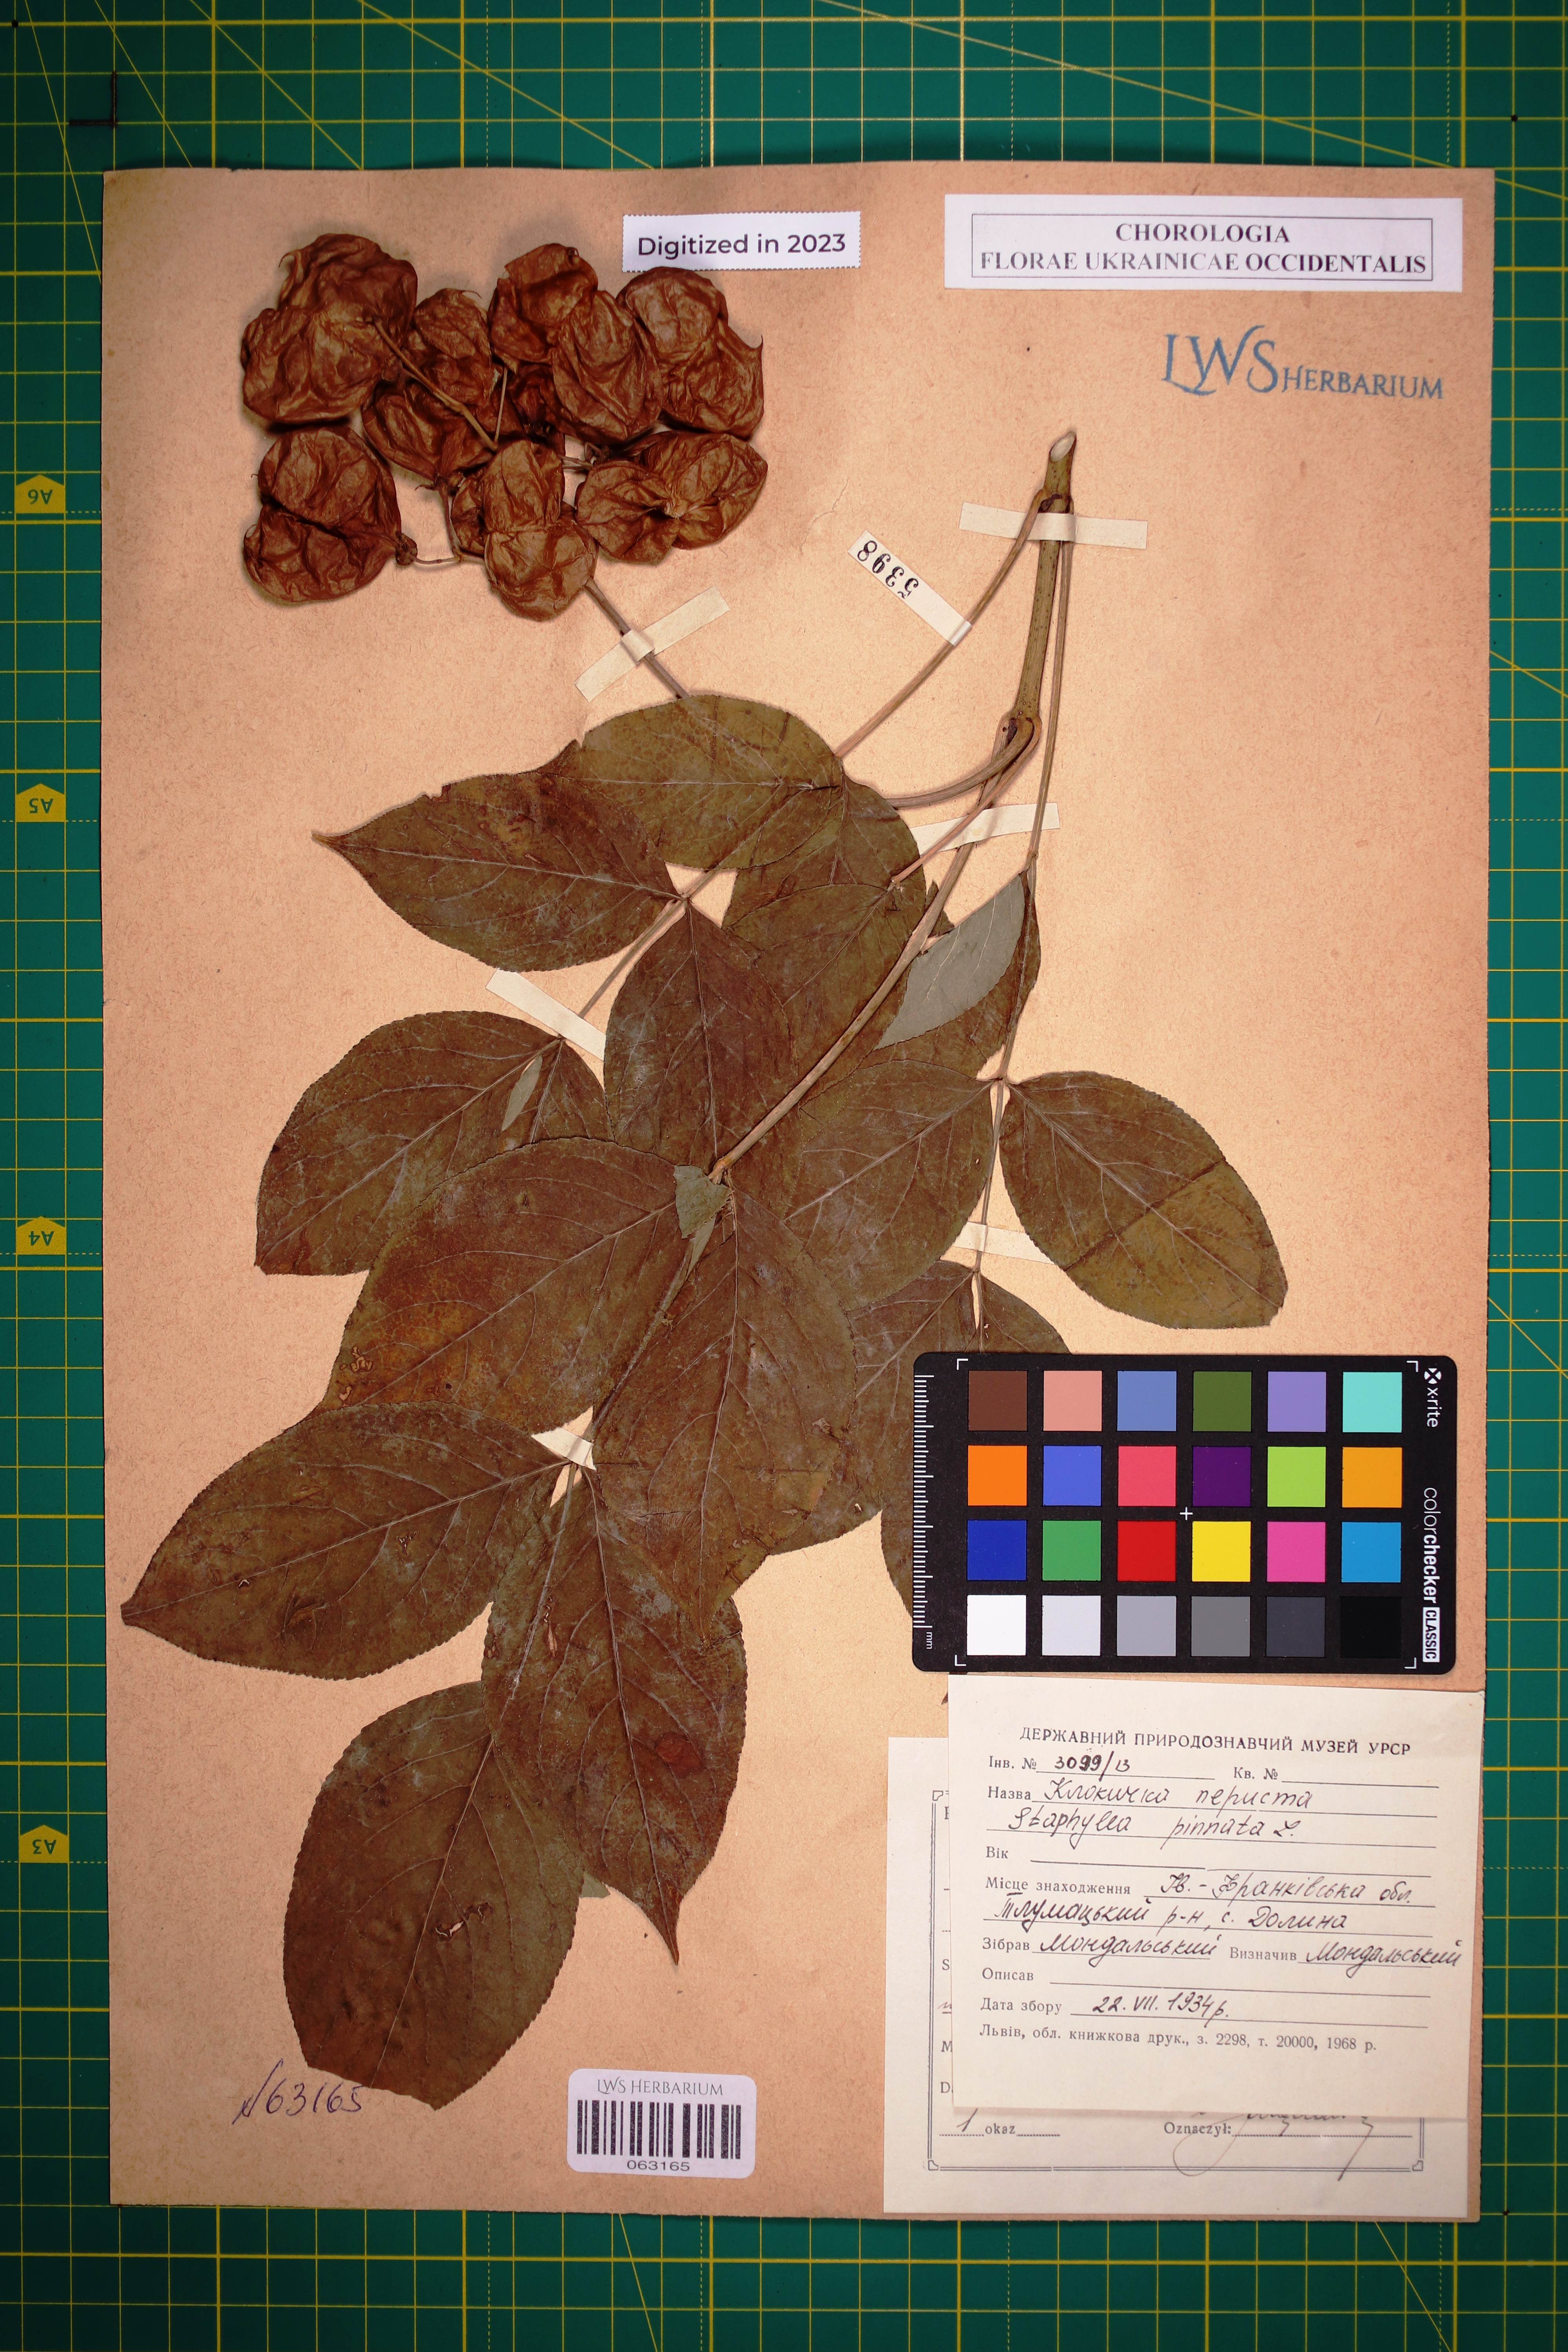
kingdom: Plantae
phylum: Tracheophyta
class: Magnoliopsida
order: Crossosomatales
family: Staphyleaceae
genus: Staphylea
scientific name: Staphylea pinnata
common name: Bladdernut
